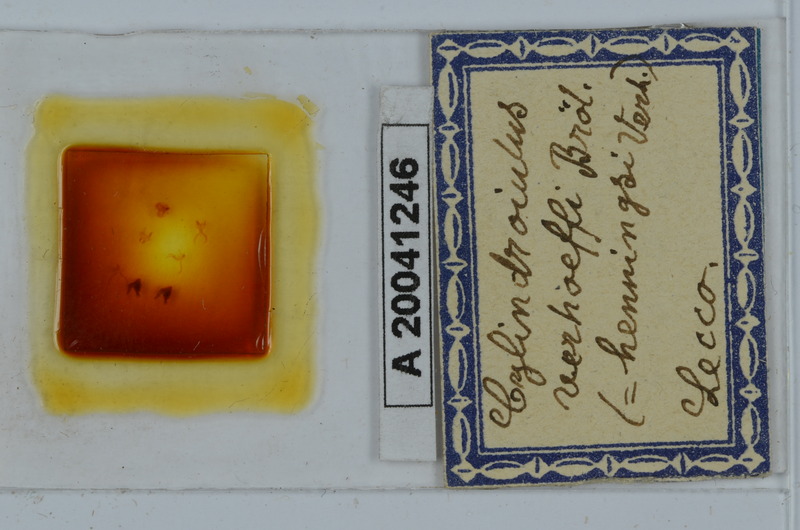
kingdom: Animalia
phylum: Arthropoda
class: Diplopoda
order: Julida
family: Julidae
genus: Cylindroiulus
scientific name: Cylindroiulus verhoeffi
